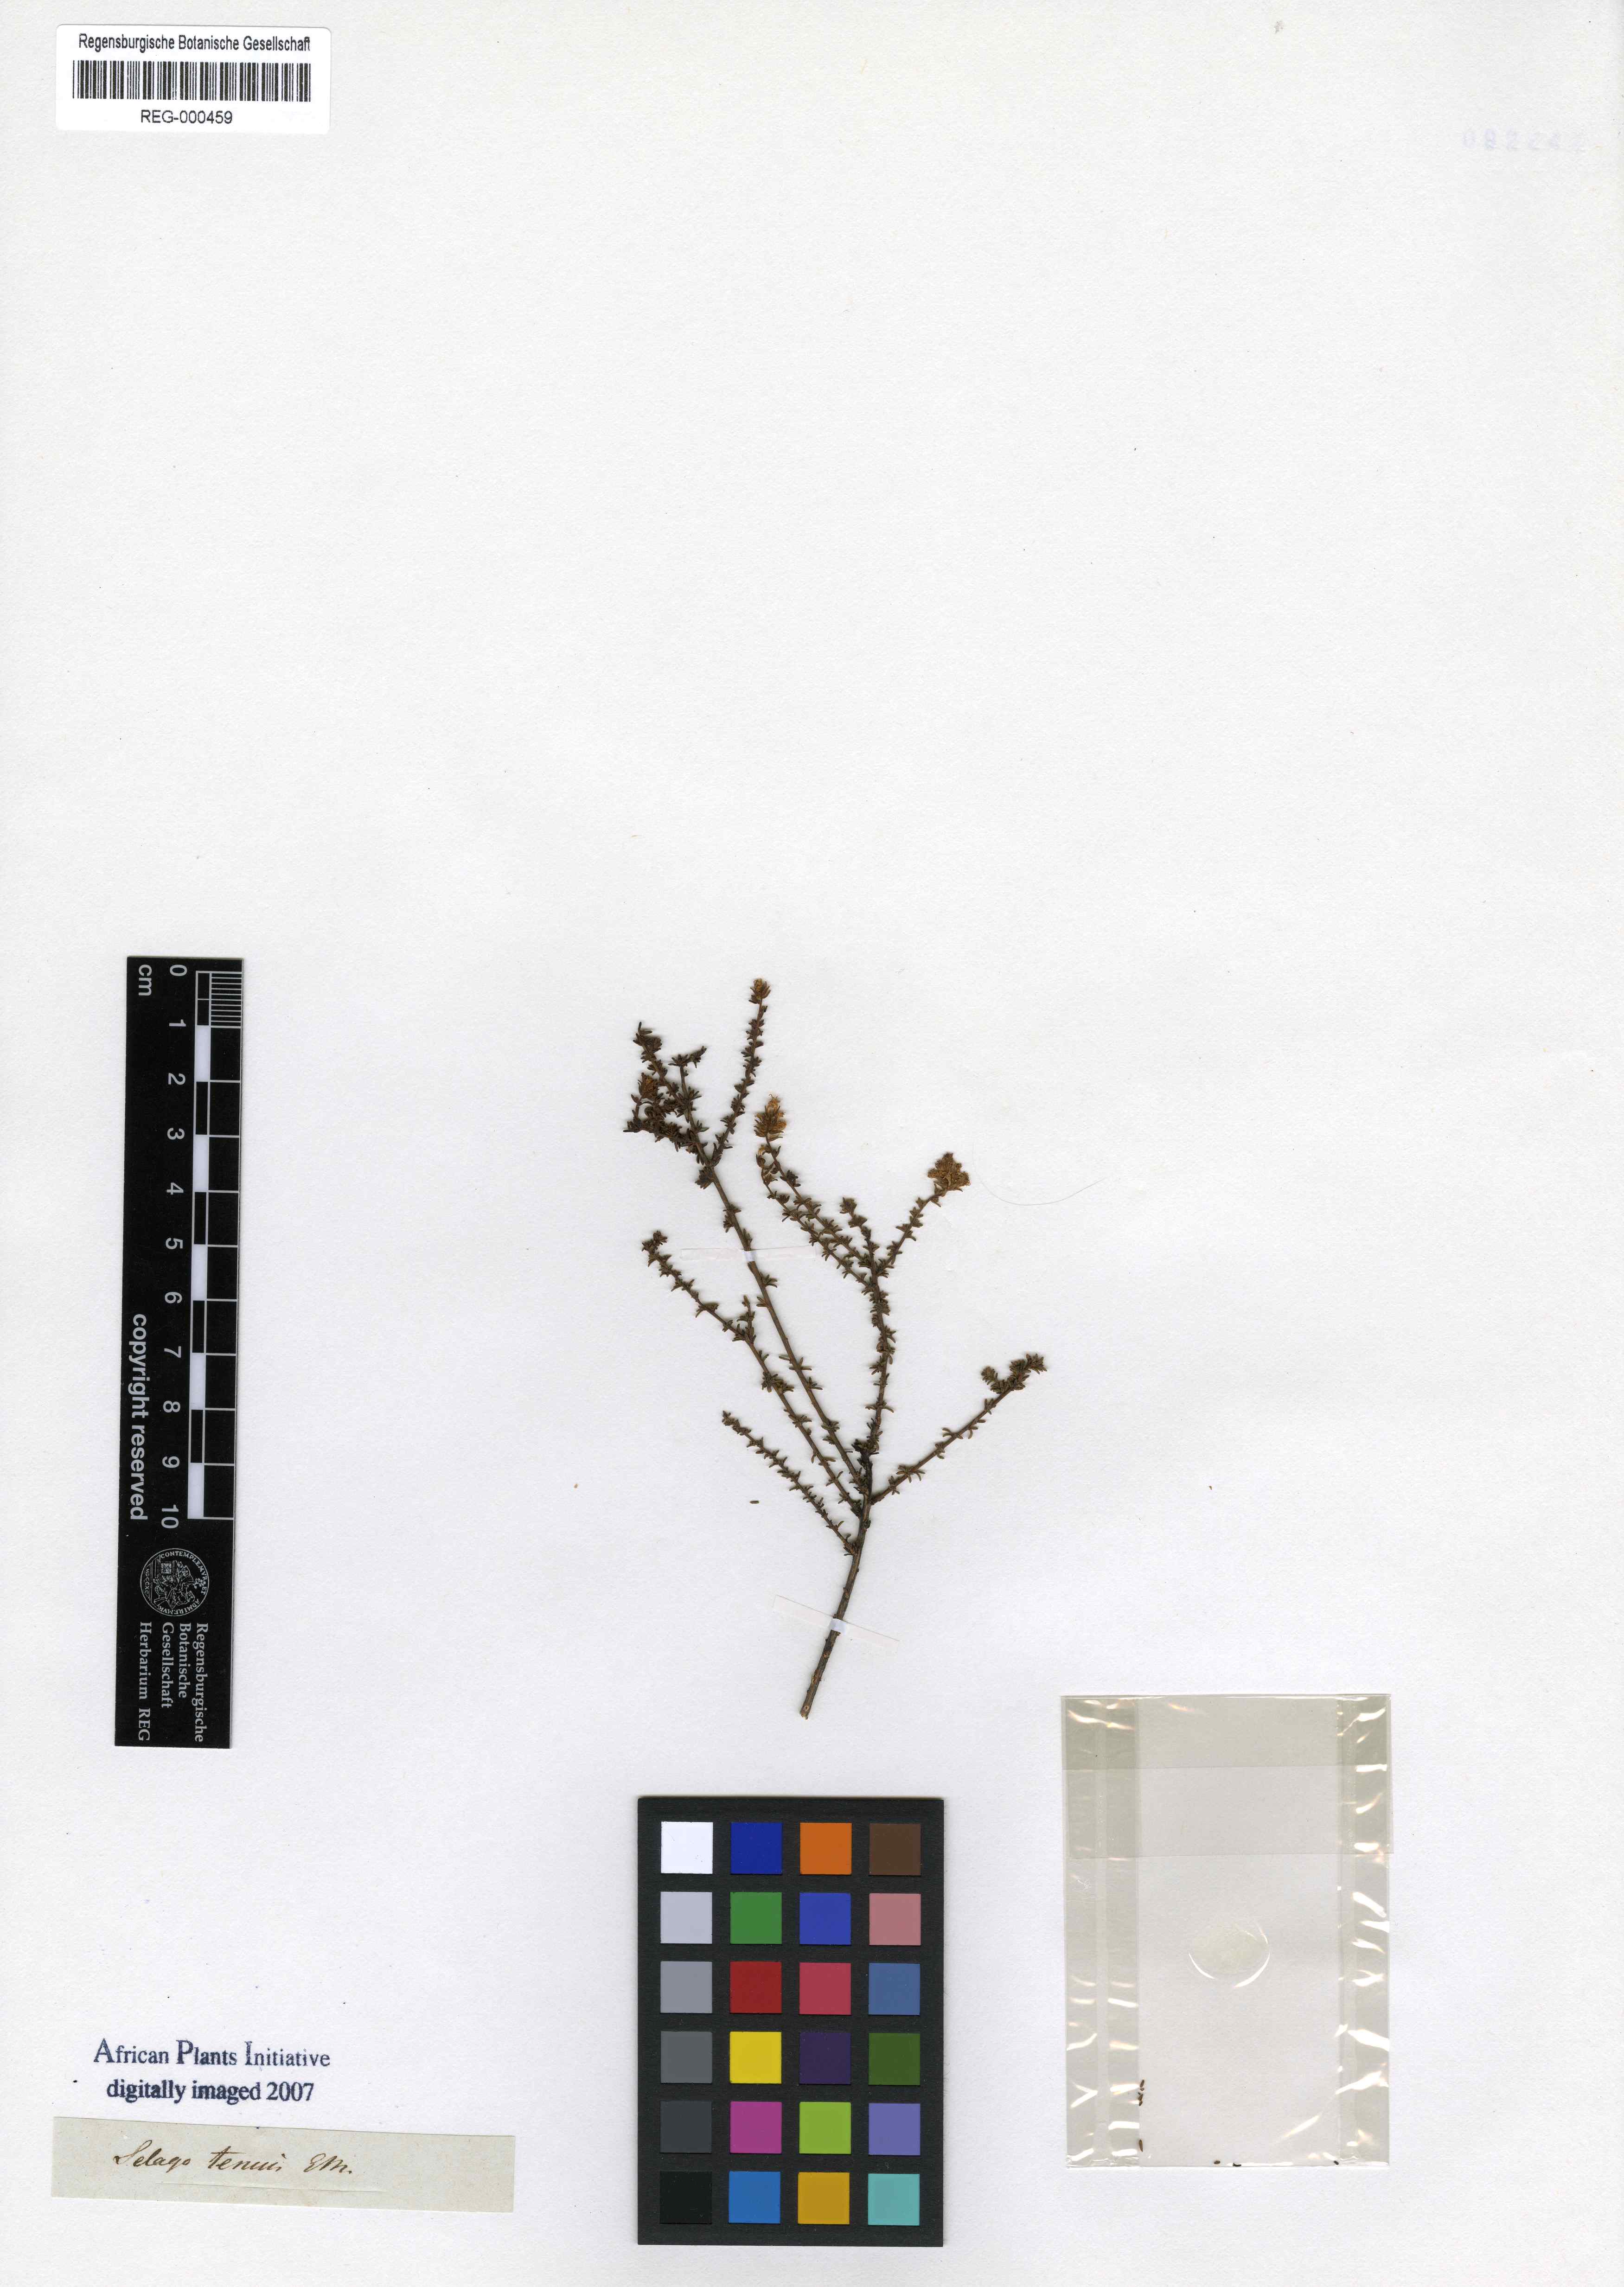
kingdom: Plantae
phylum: Tracheophyta
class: Magnoliopsida
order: Lamiales
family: Scrophulariaceae
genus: Selago
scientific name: Selago tenuis
